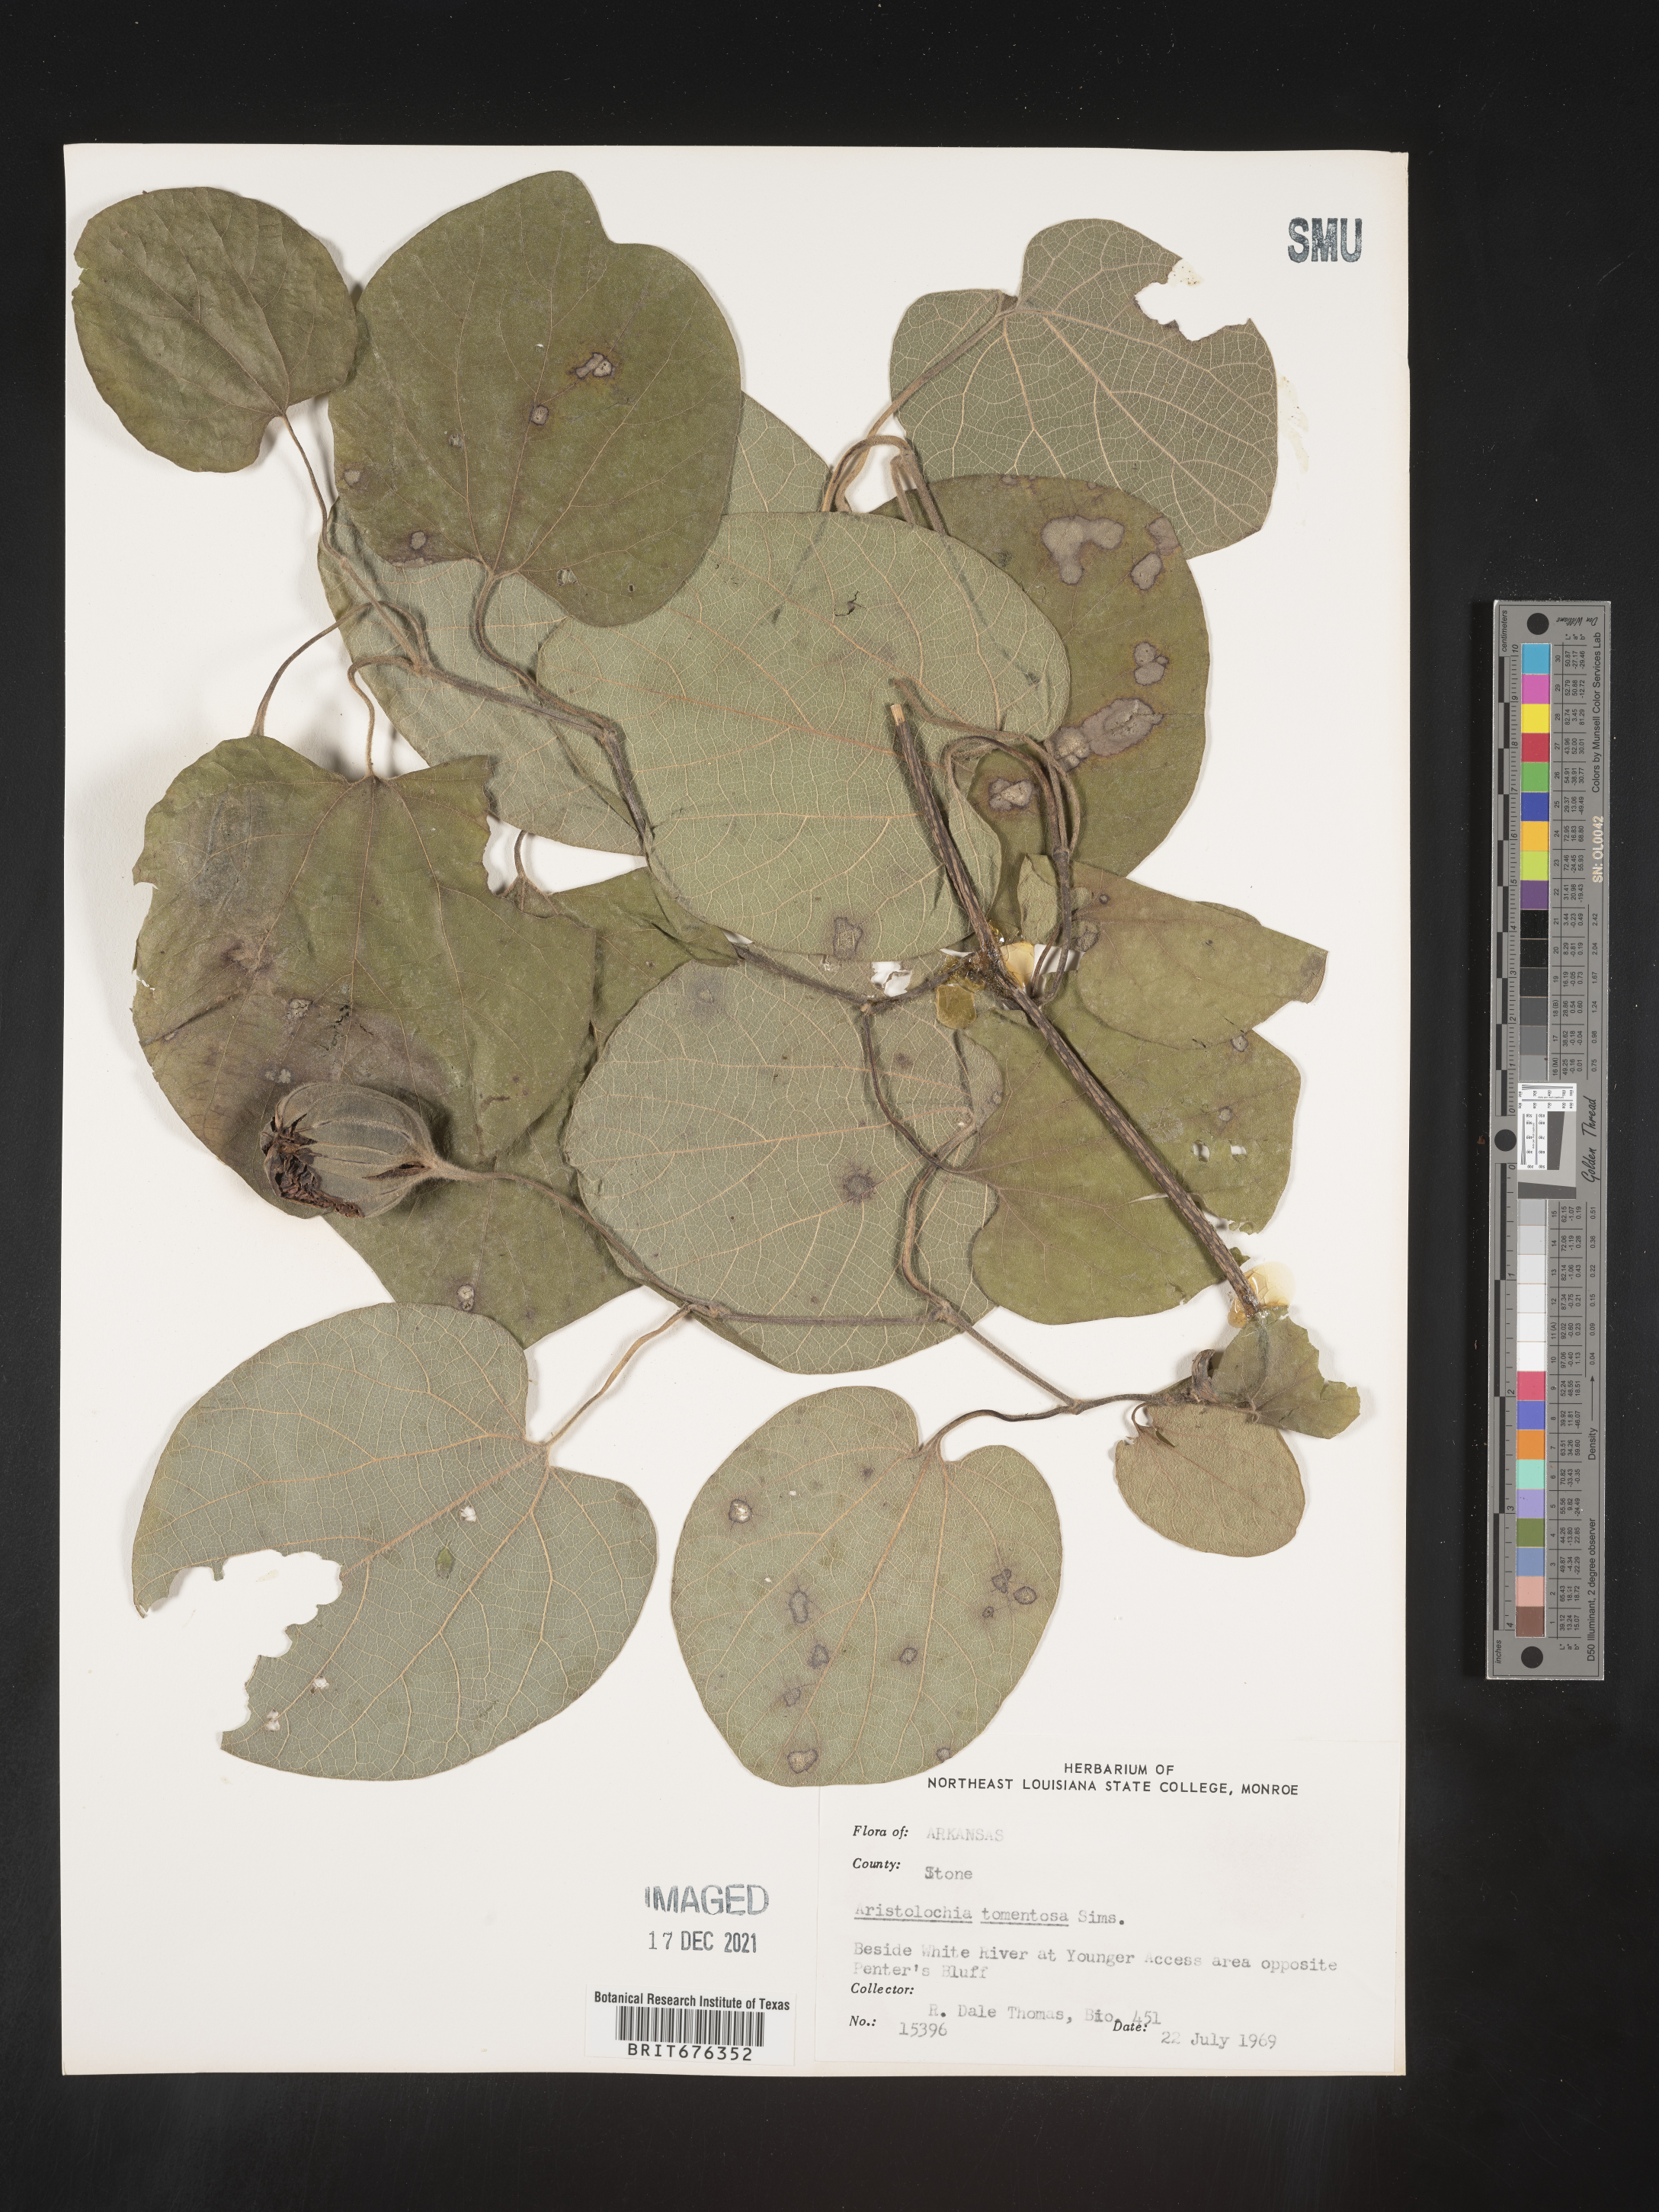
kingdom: Plantae
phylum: Tracheophyta
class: Magnoliopsida
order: Piperales
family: Aristolochiaceae
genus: Isotrema
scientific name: Isotrema tomentosum
